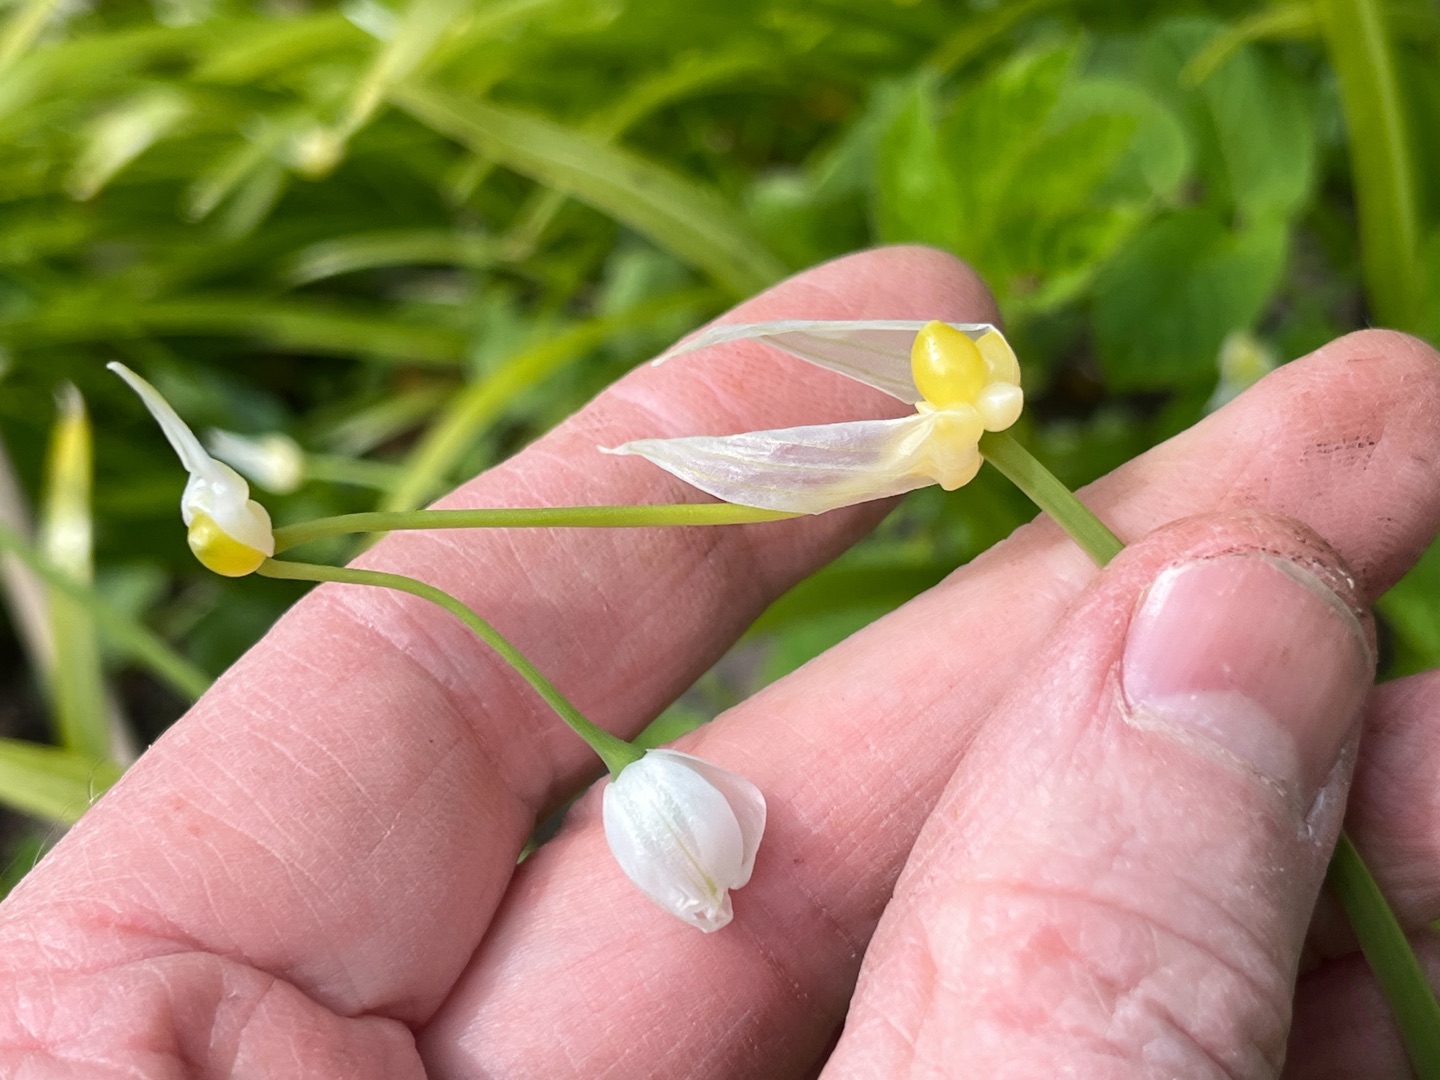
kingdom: Plantae
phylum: Tracheophyta
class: Liliopsida
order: Asparagales
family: Amaryllidaceae
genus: Allium
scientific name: Allium paradoxum
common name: Spøjs løg
